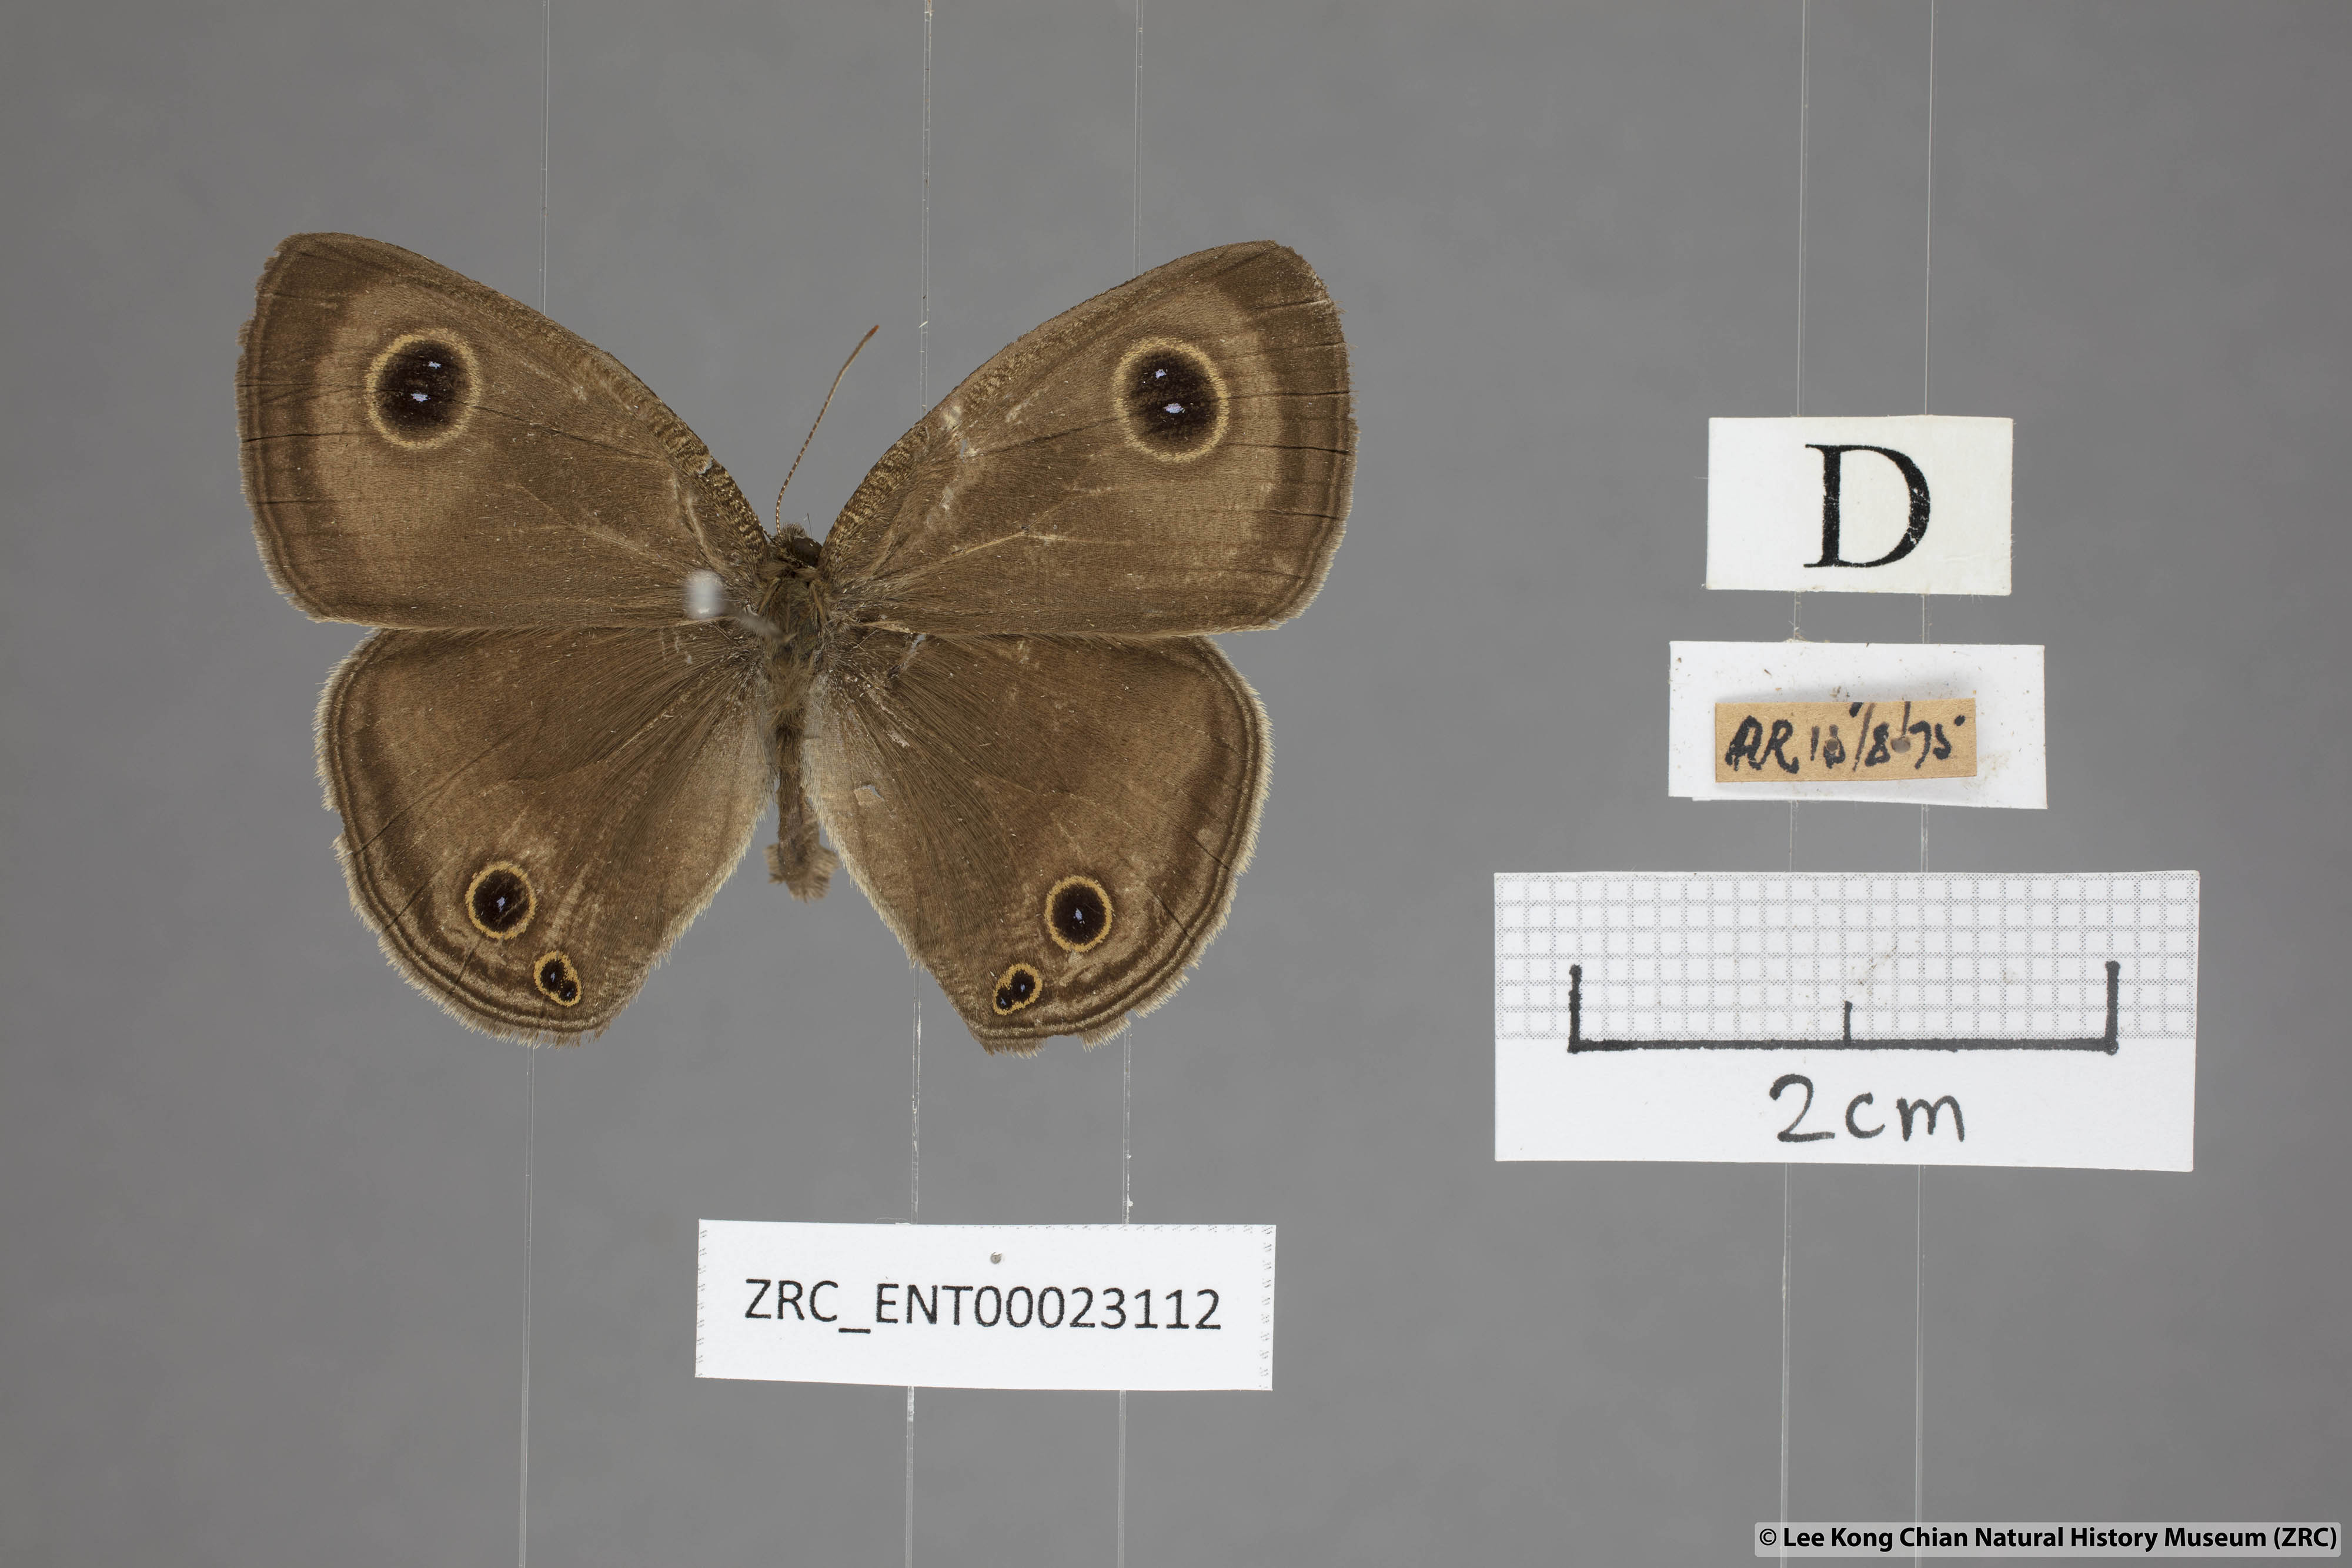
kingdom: Animalia
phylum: Arthropoda
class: Insecta
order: Lepidoptera
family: Nymphalidae
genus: Ypthima
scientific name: Ypthima pandocus
